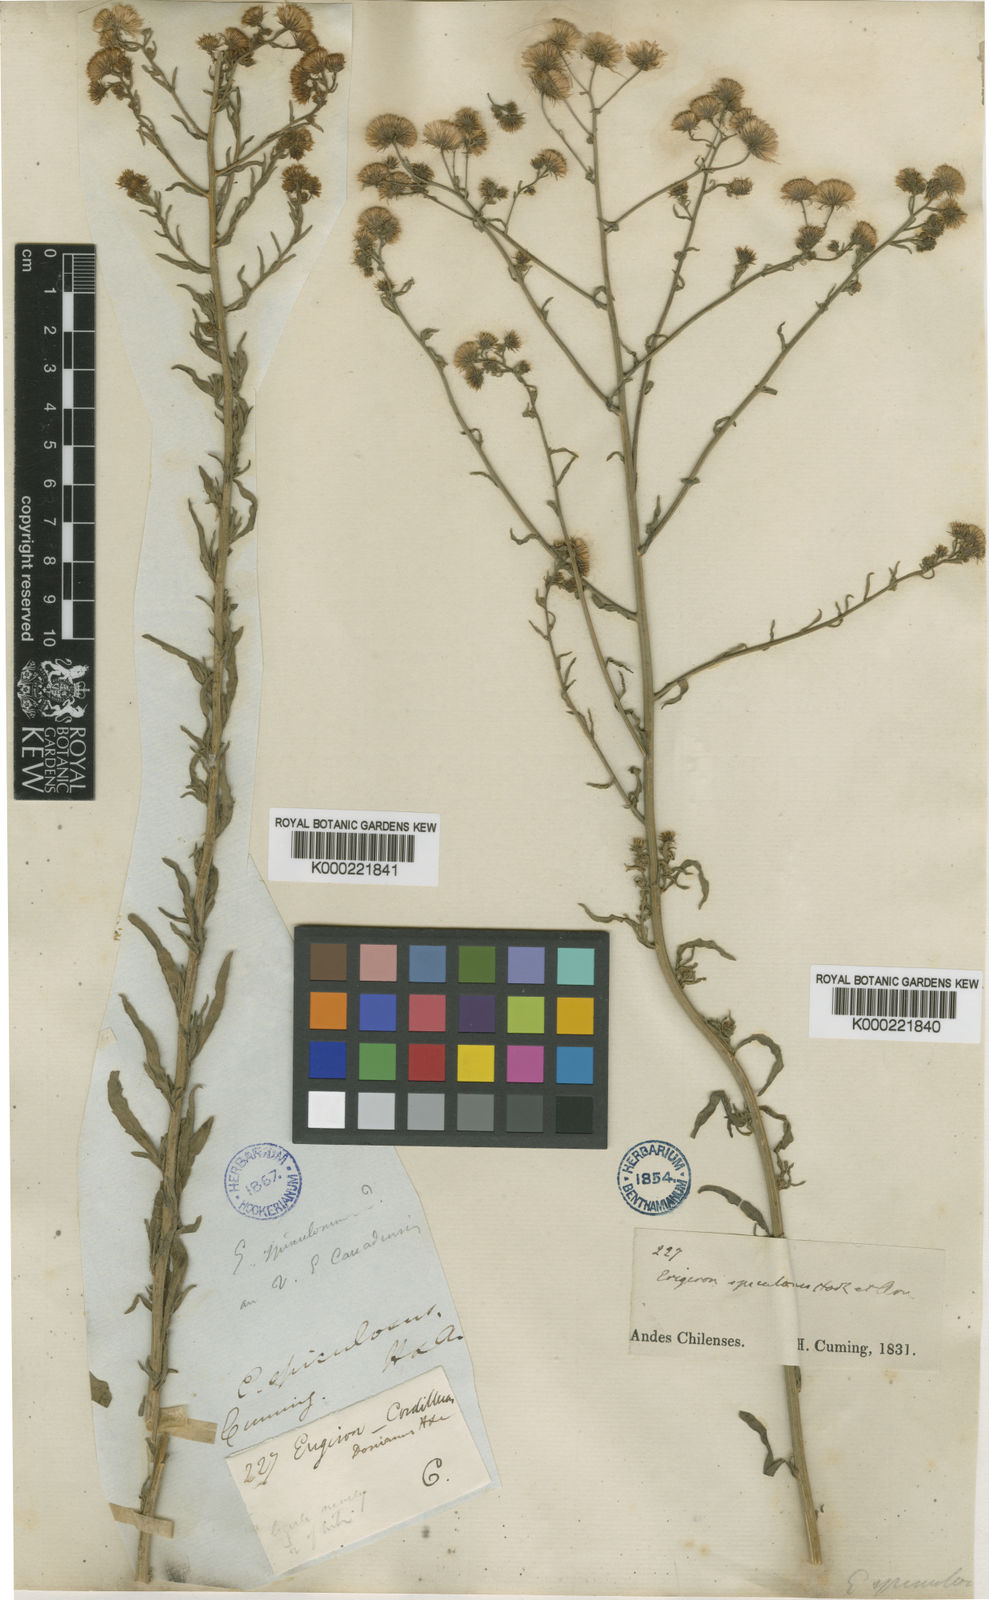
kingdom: Plantae
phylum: Tracheophyta
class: Magnoliopsida
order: Asterales
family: Asteraceae
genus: Erigeron
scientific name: Erigeron spiculosus
